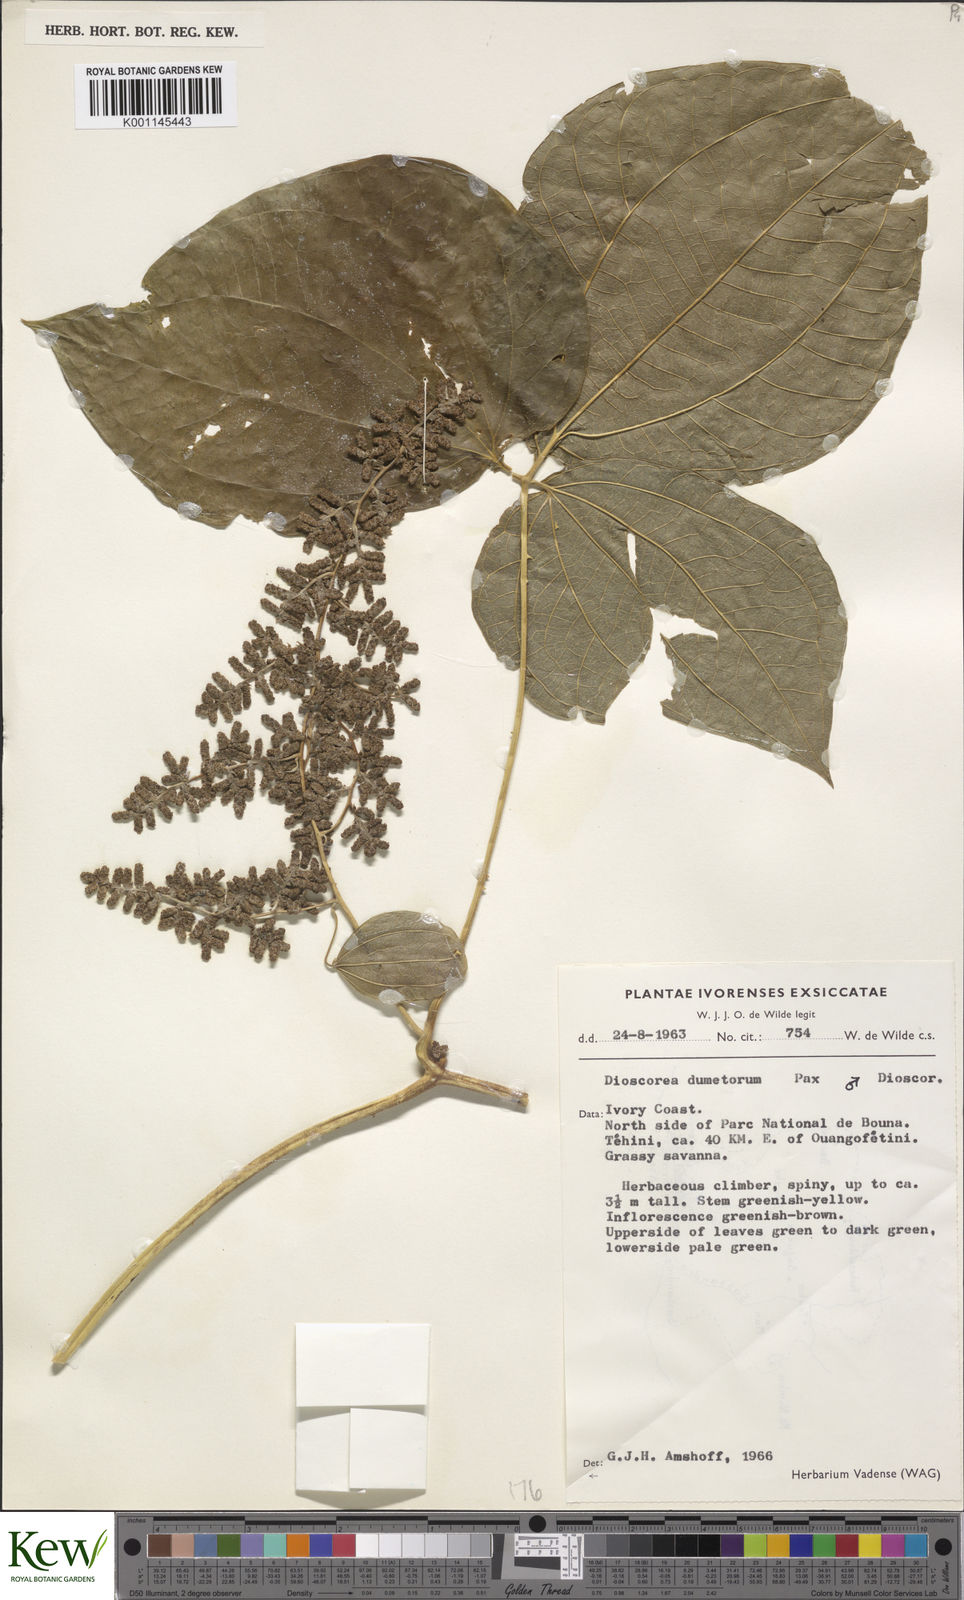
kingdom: Plantae
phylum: Tracheophyta
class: Liliopsida
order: Dioscoreales
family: Dioscoreaceae
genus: Dioscorea
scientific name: Dioscorea dumetorum
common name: African bitter yam
